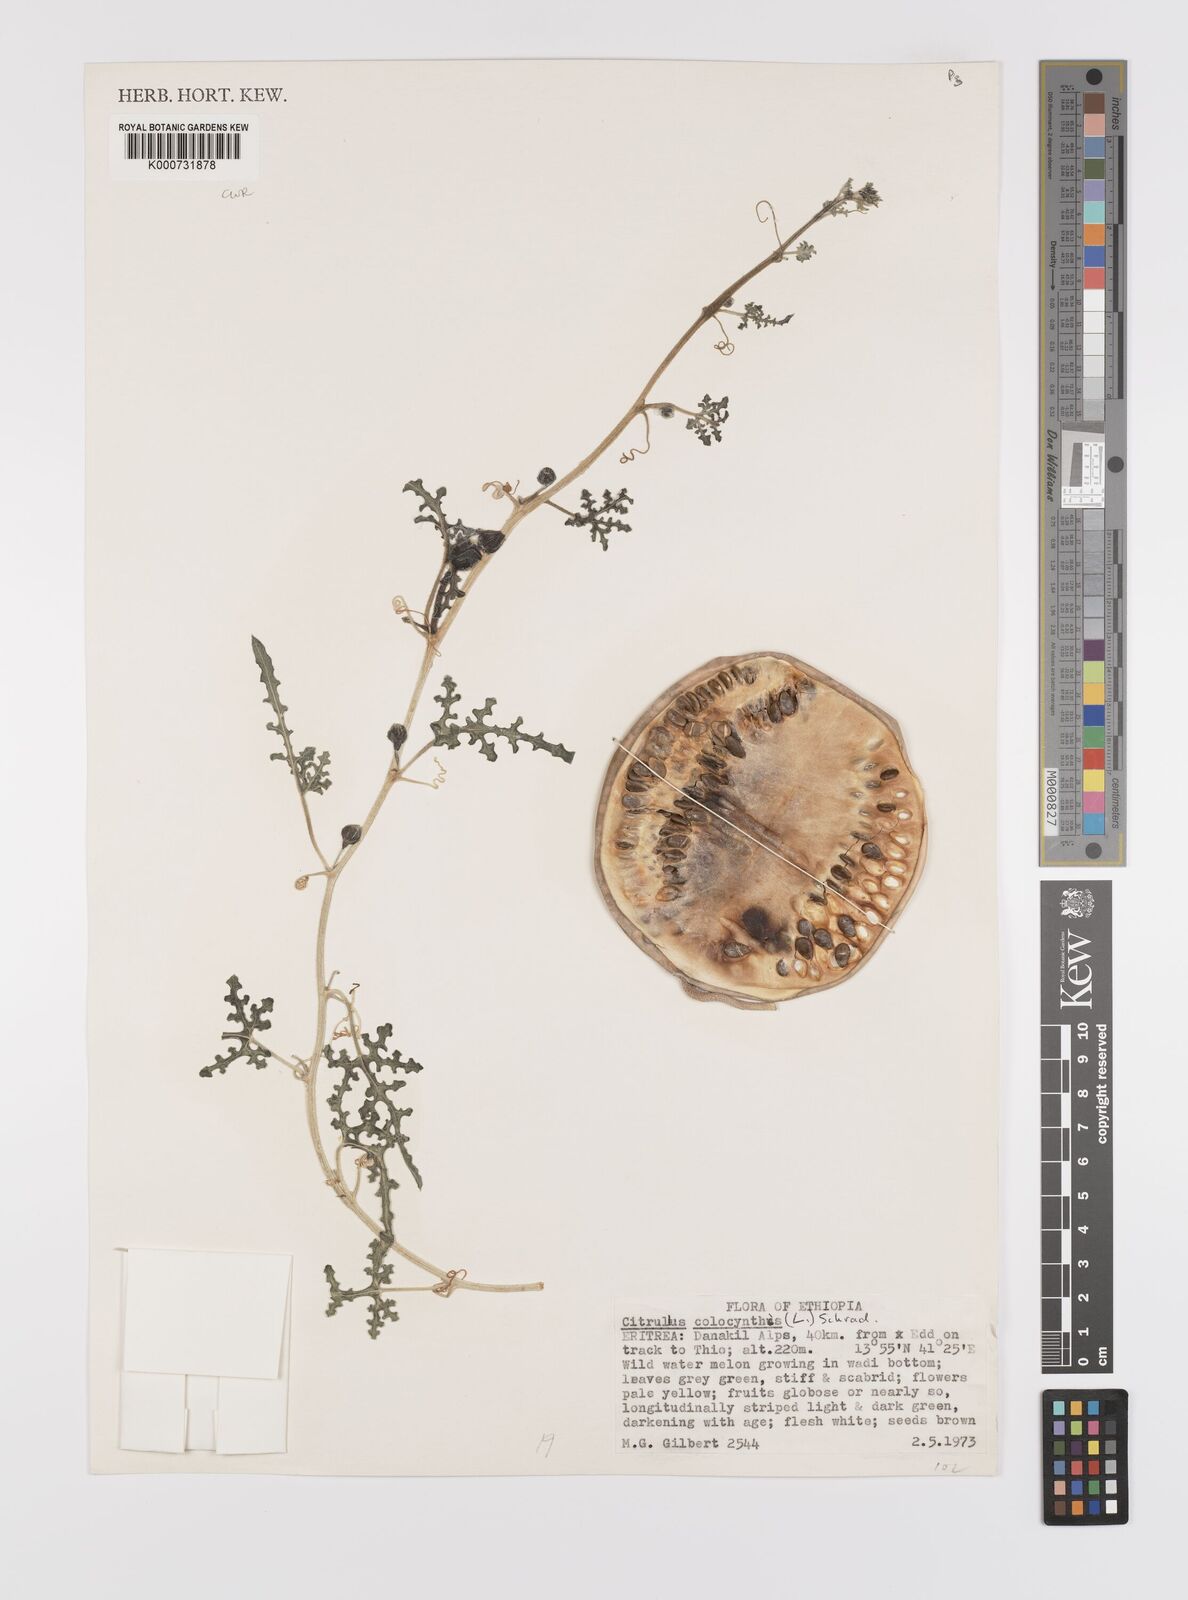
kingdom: Plantae
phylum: Tracheophyta
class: Magnoliopsida
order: Cucurbitales
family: Cucurbitaceae
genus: Citrullus
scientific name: Citrullus colocynthis
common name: Colocynth
